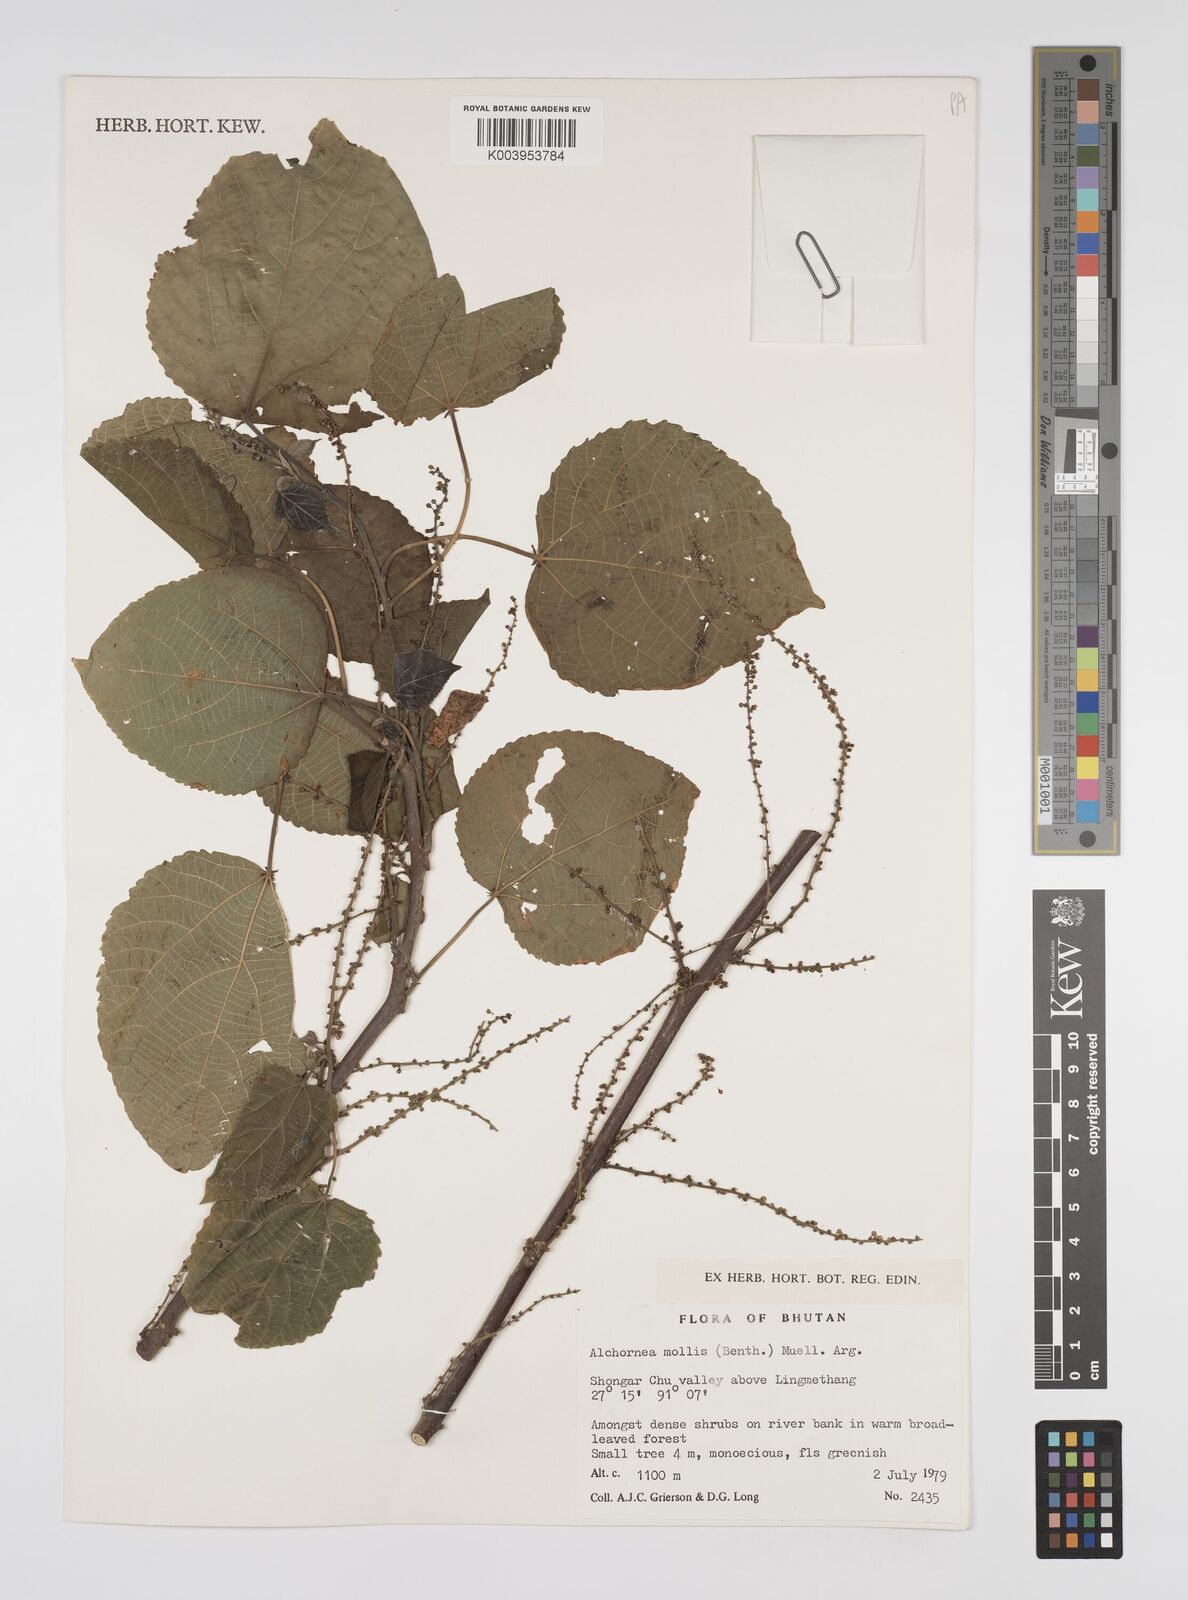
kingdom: Plantae
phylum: Tracheophyta
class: Magnoliopsida
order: Malpighiales
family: Euphorbiaceae
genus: Alchornea
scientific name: Alchornea mollis
